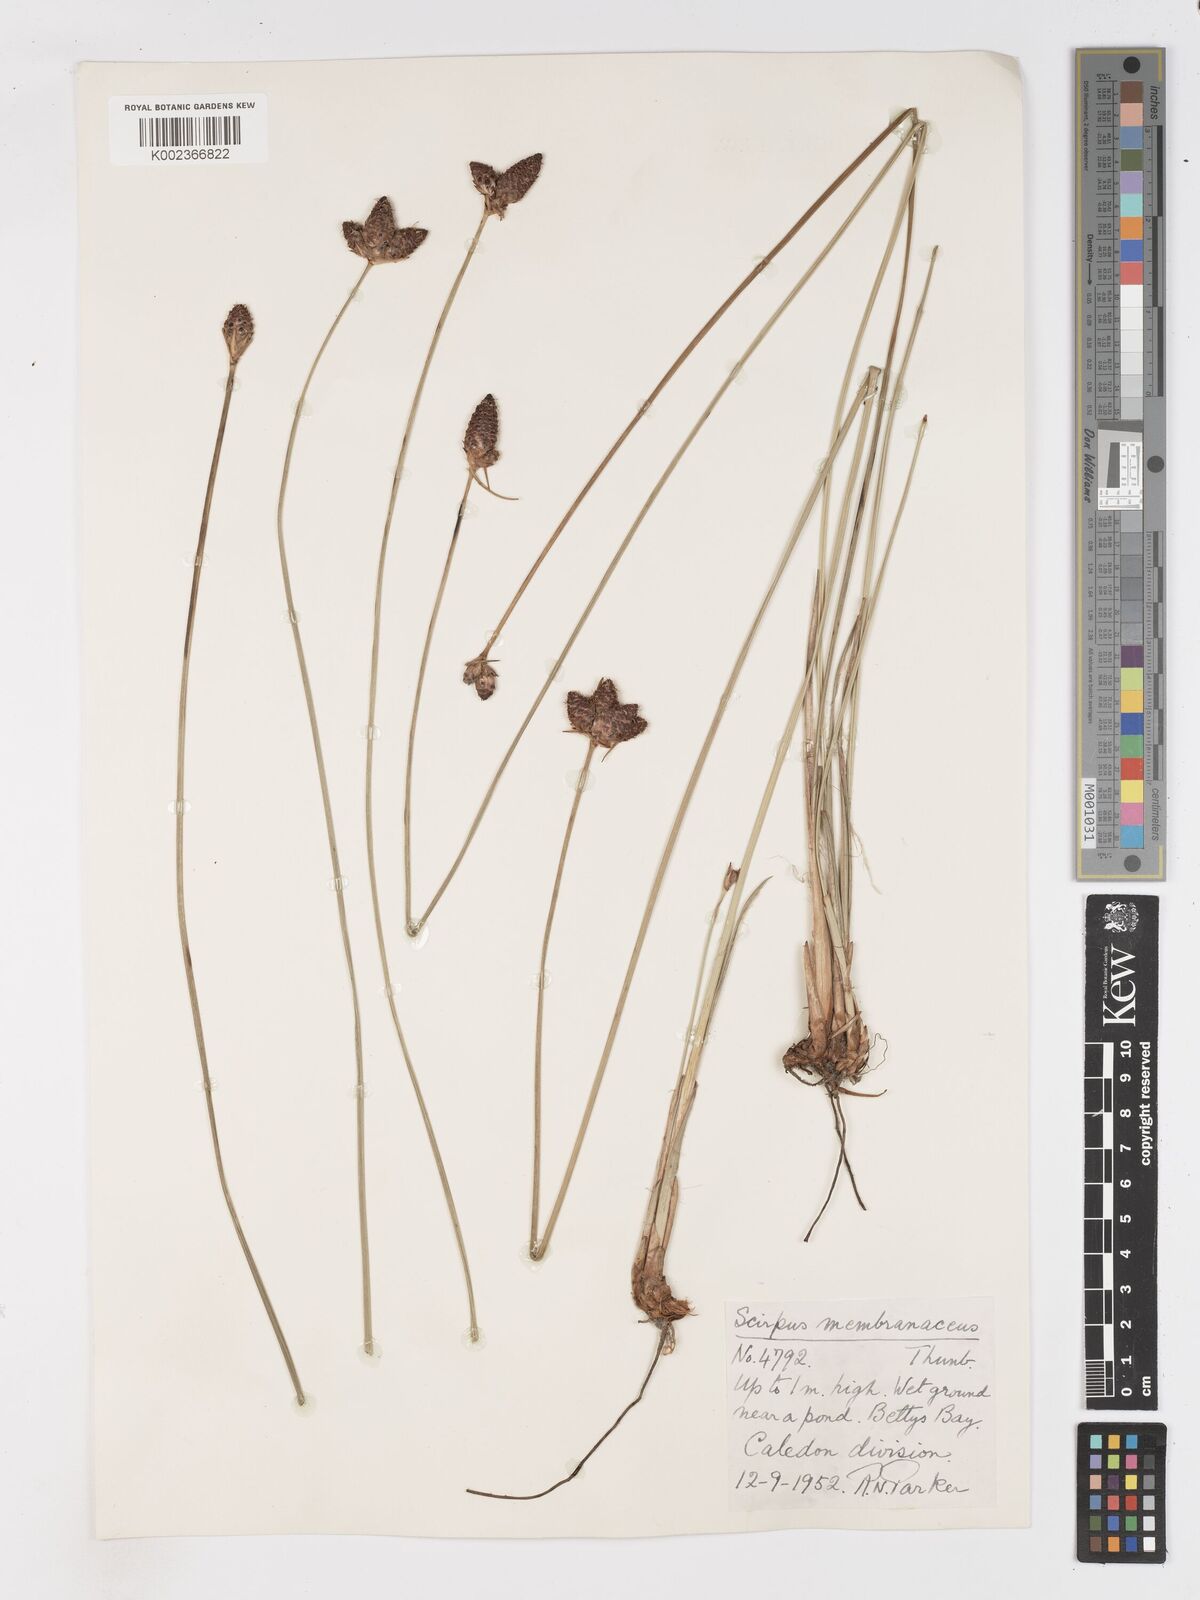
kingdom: Plantae
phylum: Tracheophyta
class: Liliopsida
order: Poales
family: Cyperaceae
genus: Hellmuthia
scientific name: Hellmuthia membranacea
